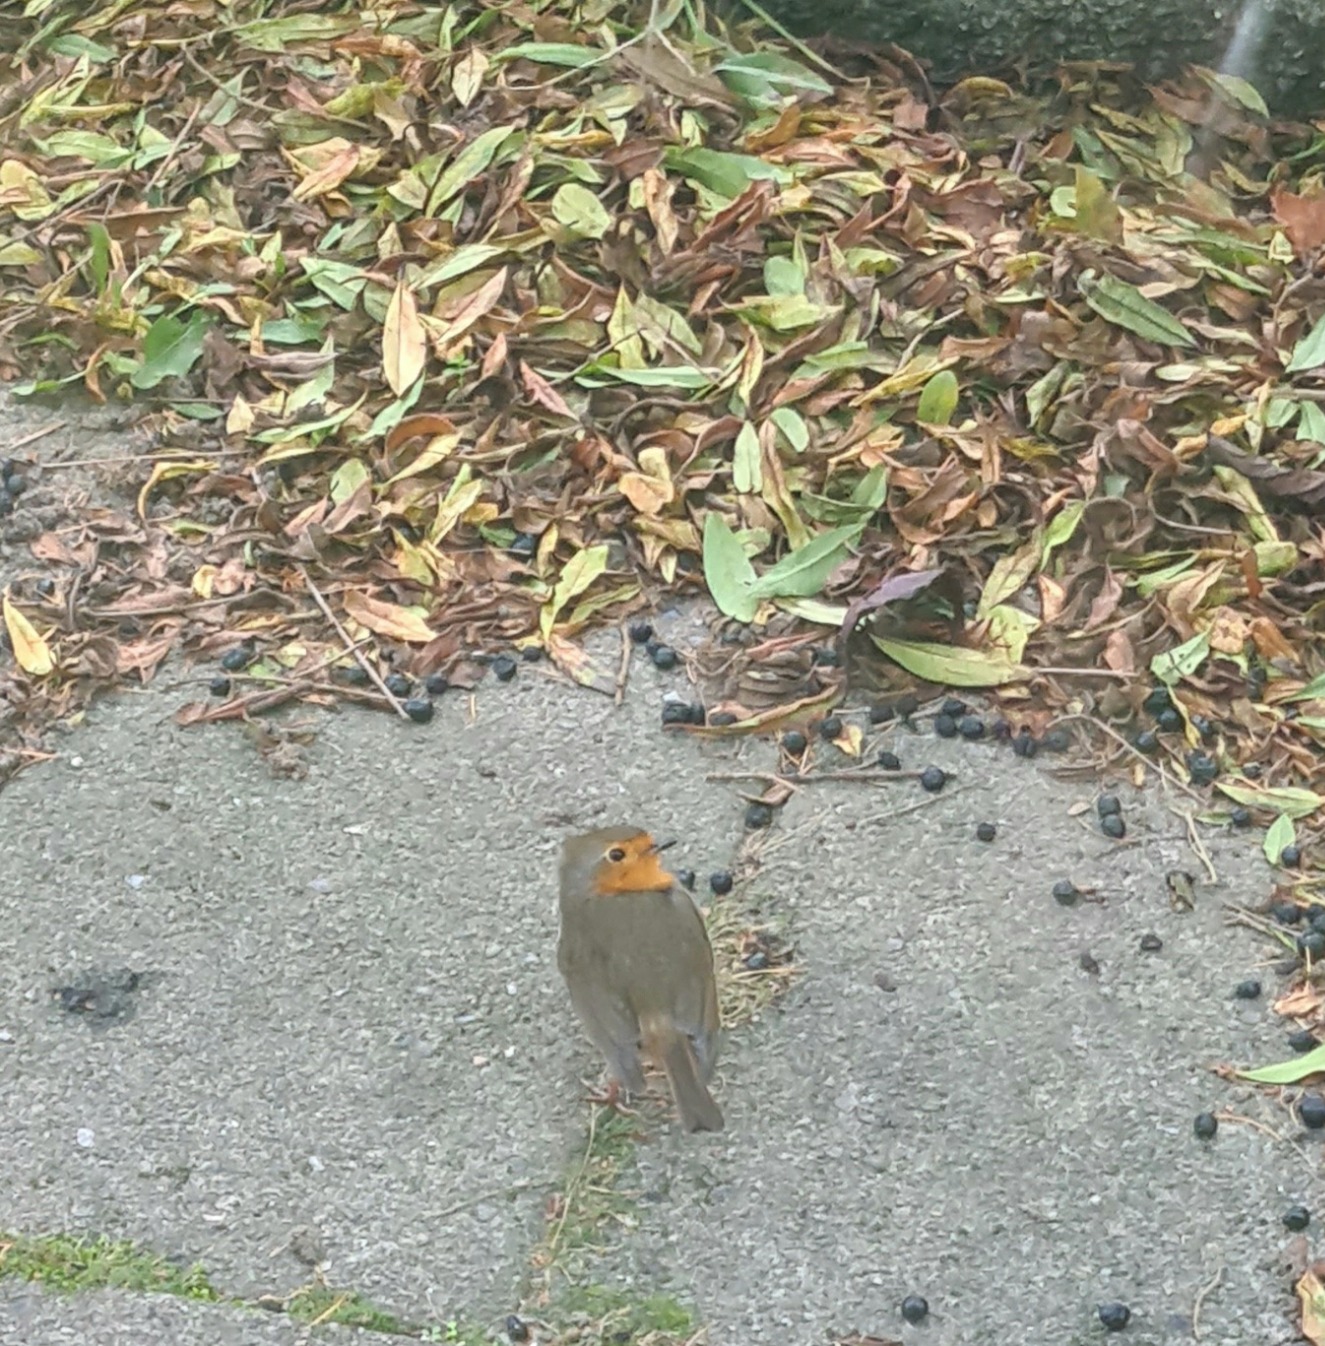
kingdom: Animalia
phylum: Chordata
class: Aves
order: Passeriformes
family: Muscicapidae
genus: Erithacus
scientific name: Erithacus rubecula
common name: Rødhals/rødkælk
